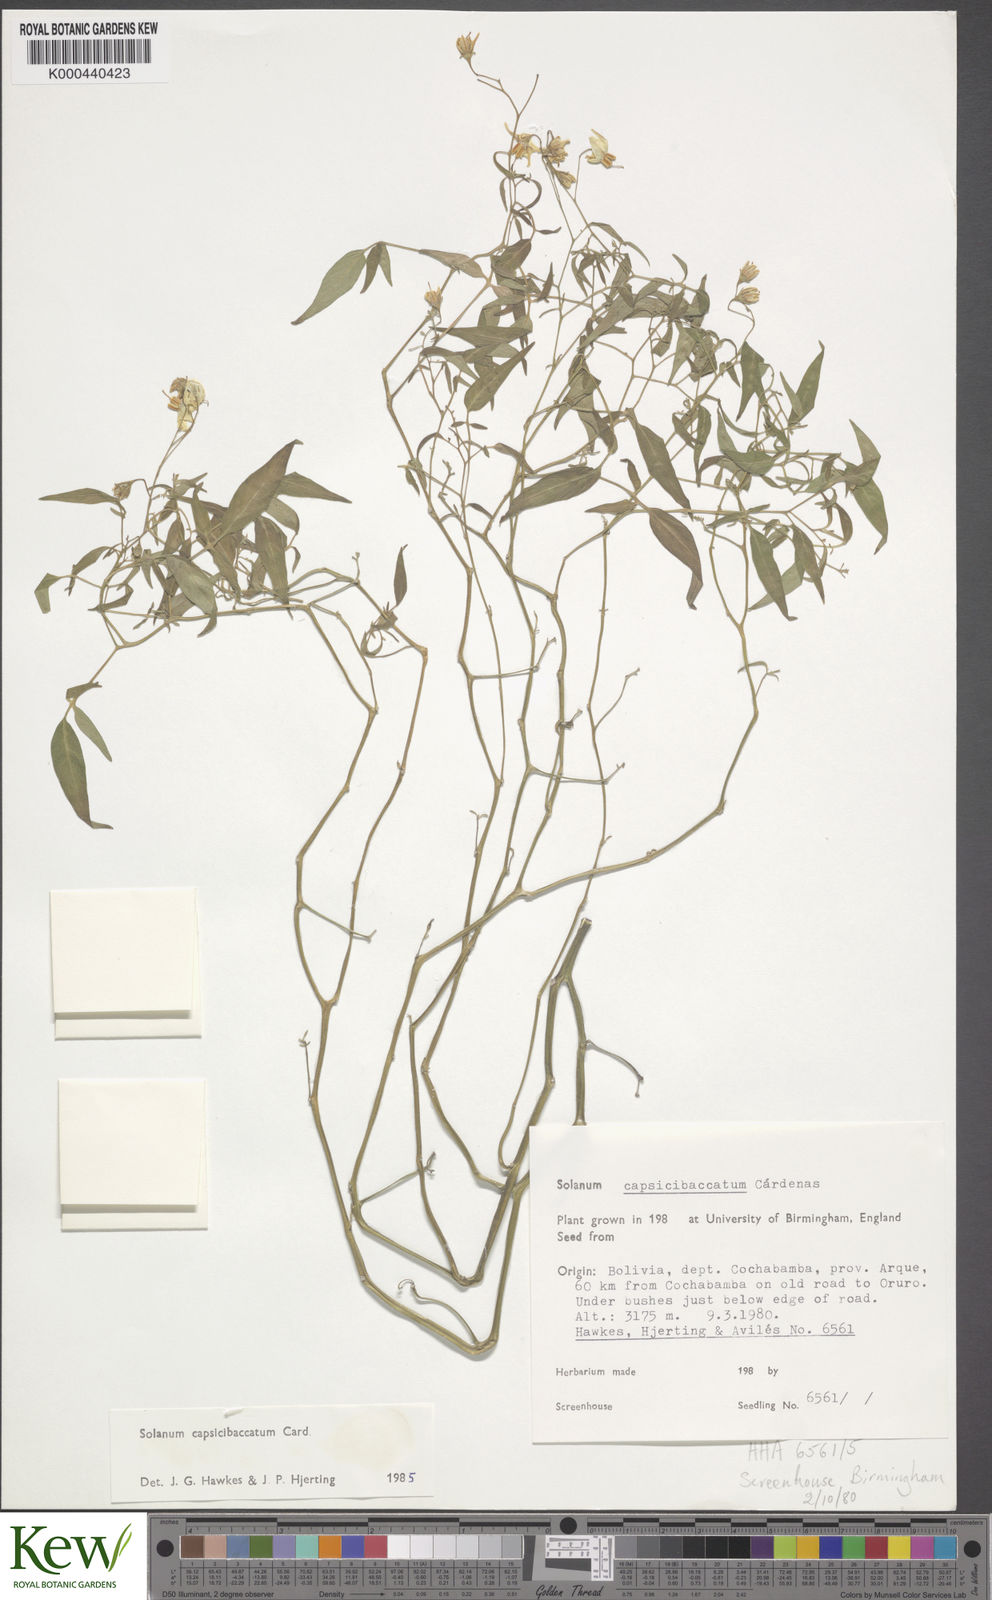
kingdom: Plantae
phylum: Tracheophyta
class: Magnoliopsida
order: Solanales
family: Solanaceae
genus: Solanum
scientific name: Solanum stipuloideum
